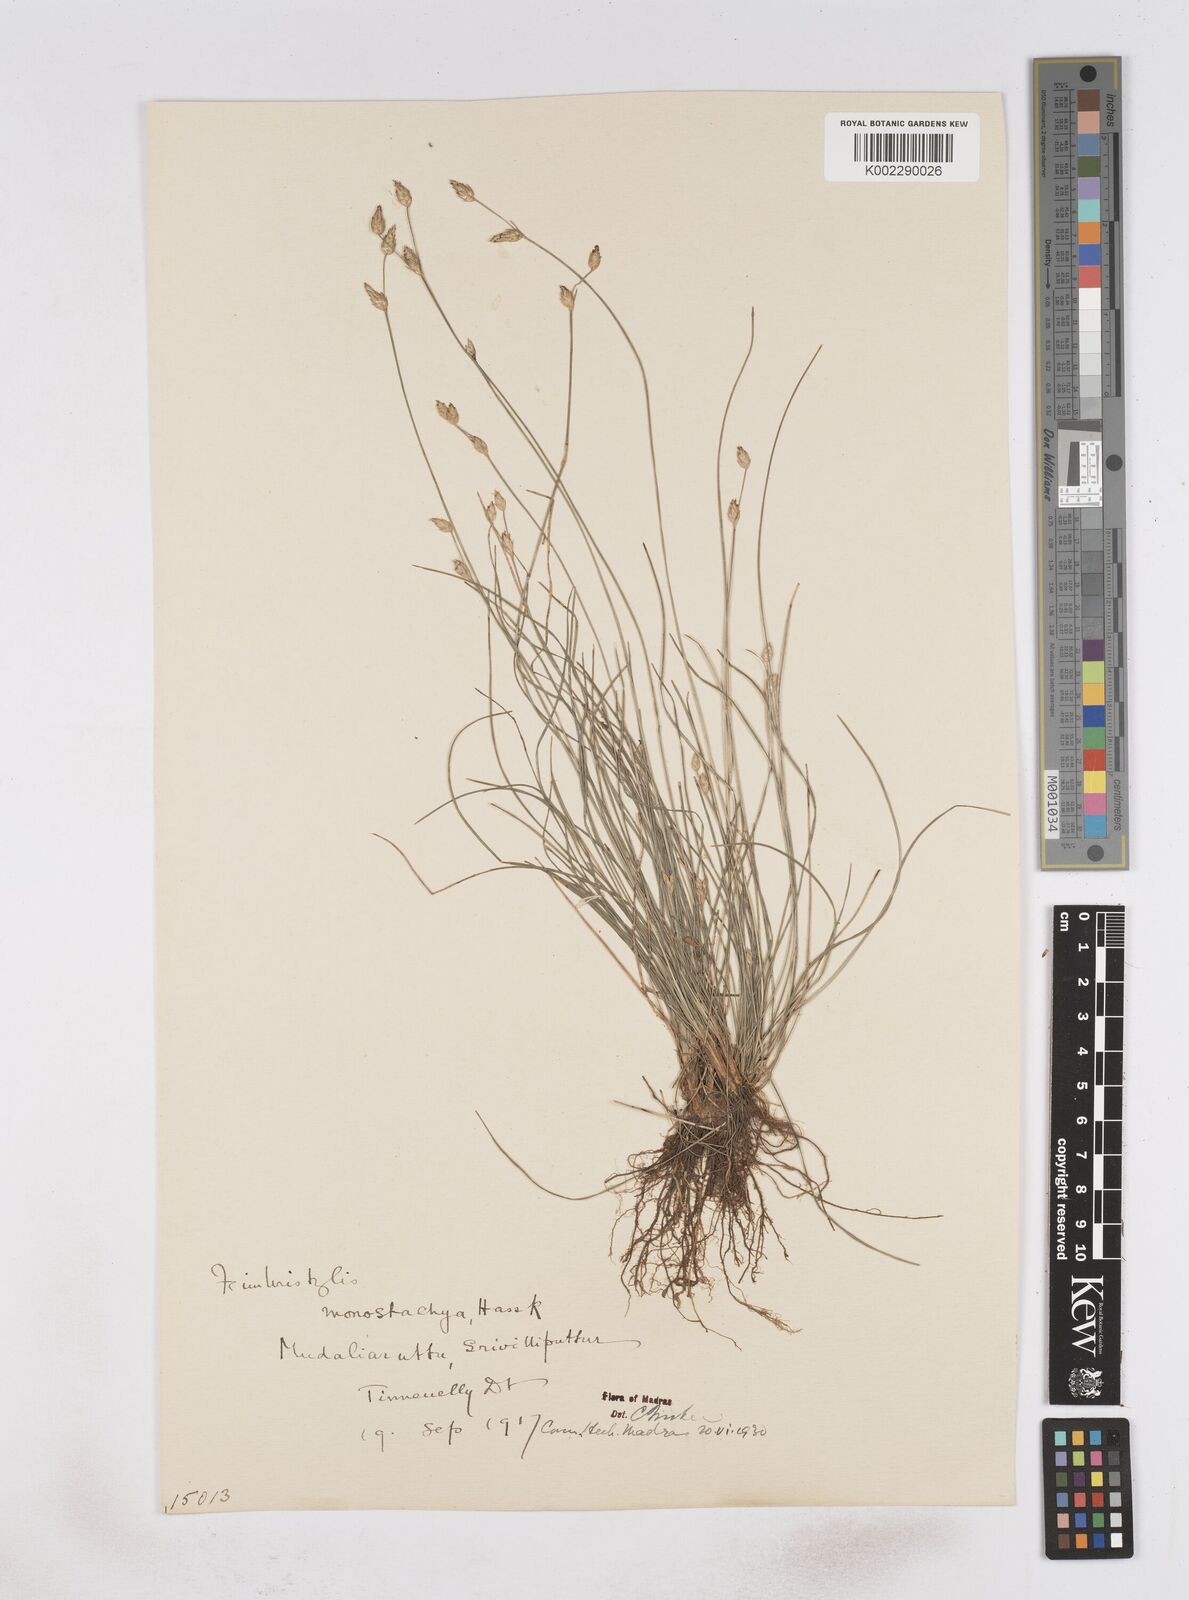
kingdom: Plantae
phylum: Tracheophyta
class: Liliopsida
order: Poales
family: Cyperaceae
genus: Abildgaardia
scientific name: Abildgaardia ovata
